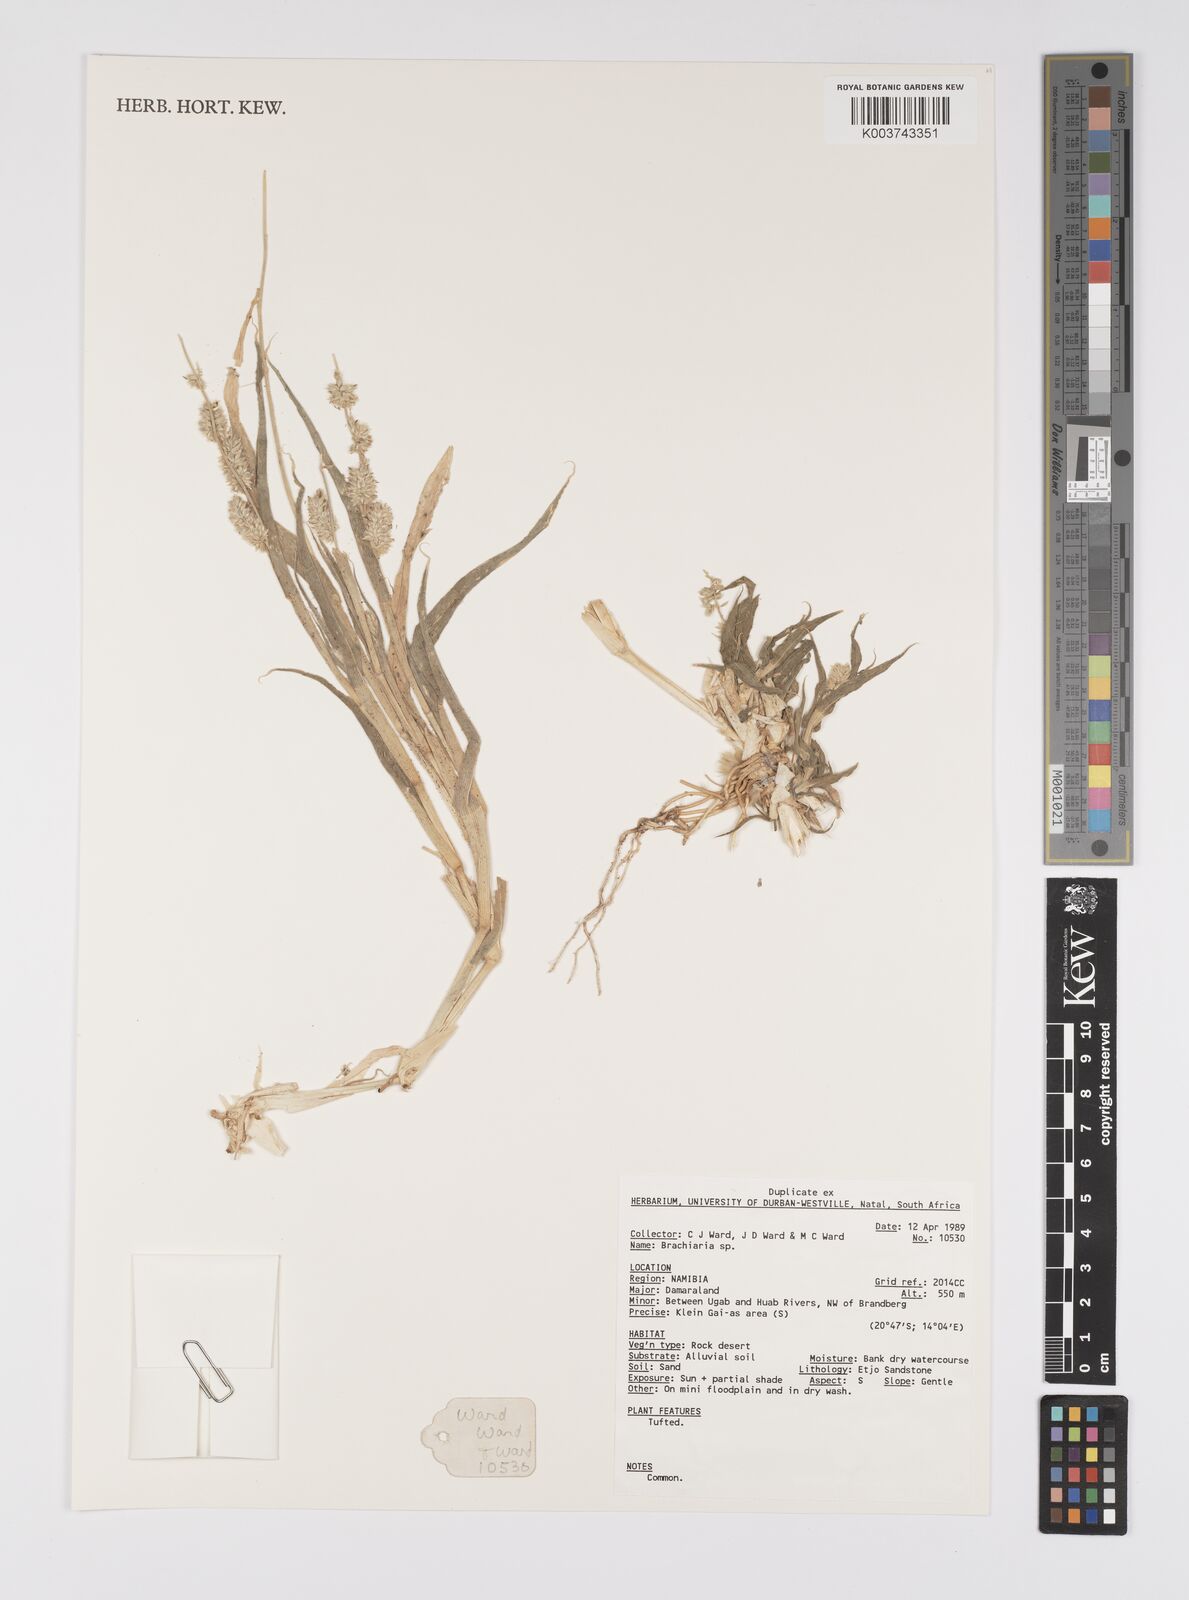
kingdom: Plantae
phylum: Tracheophyta
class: Liliopsida
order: Poales
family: Poaceae
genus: Brachiaria
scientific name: Brachiaria
